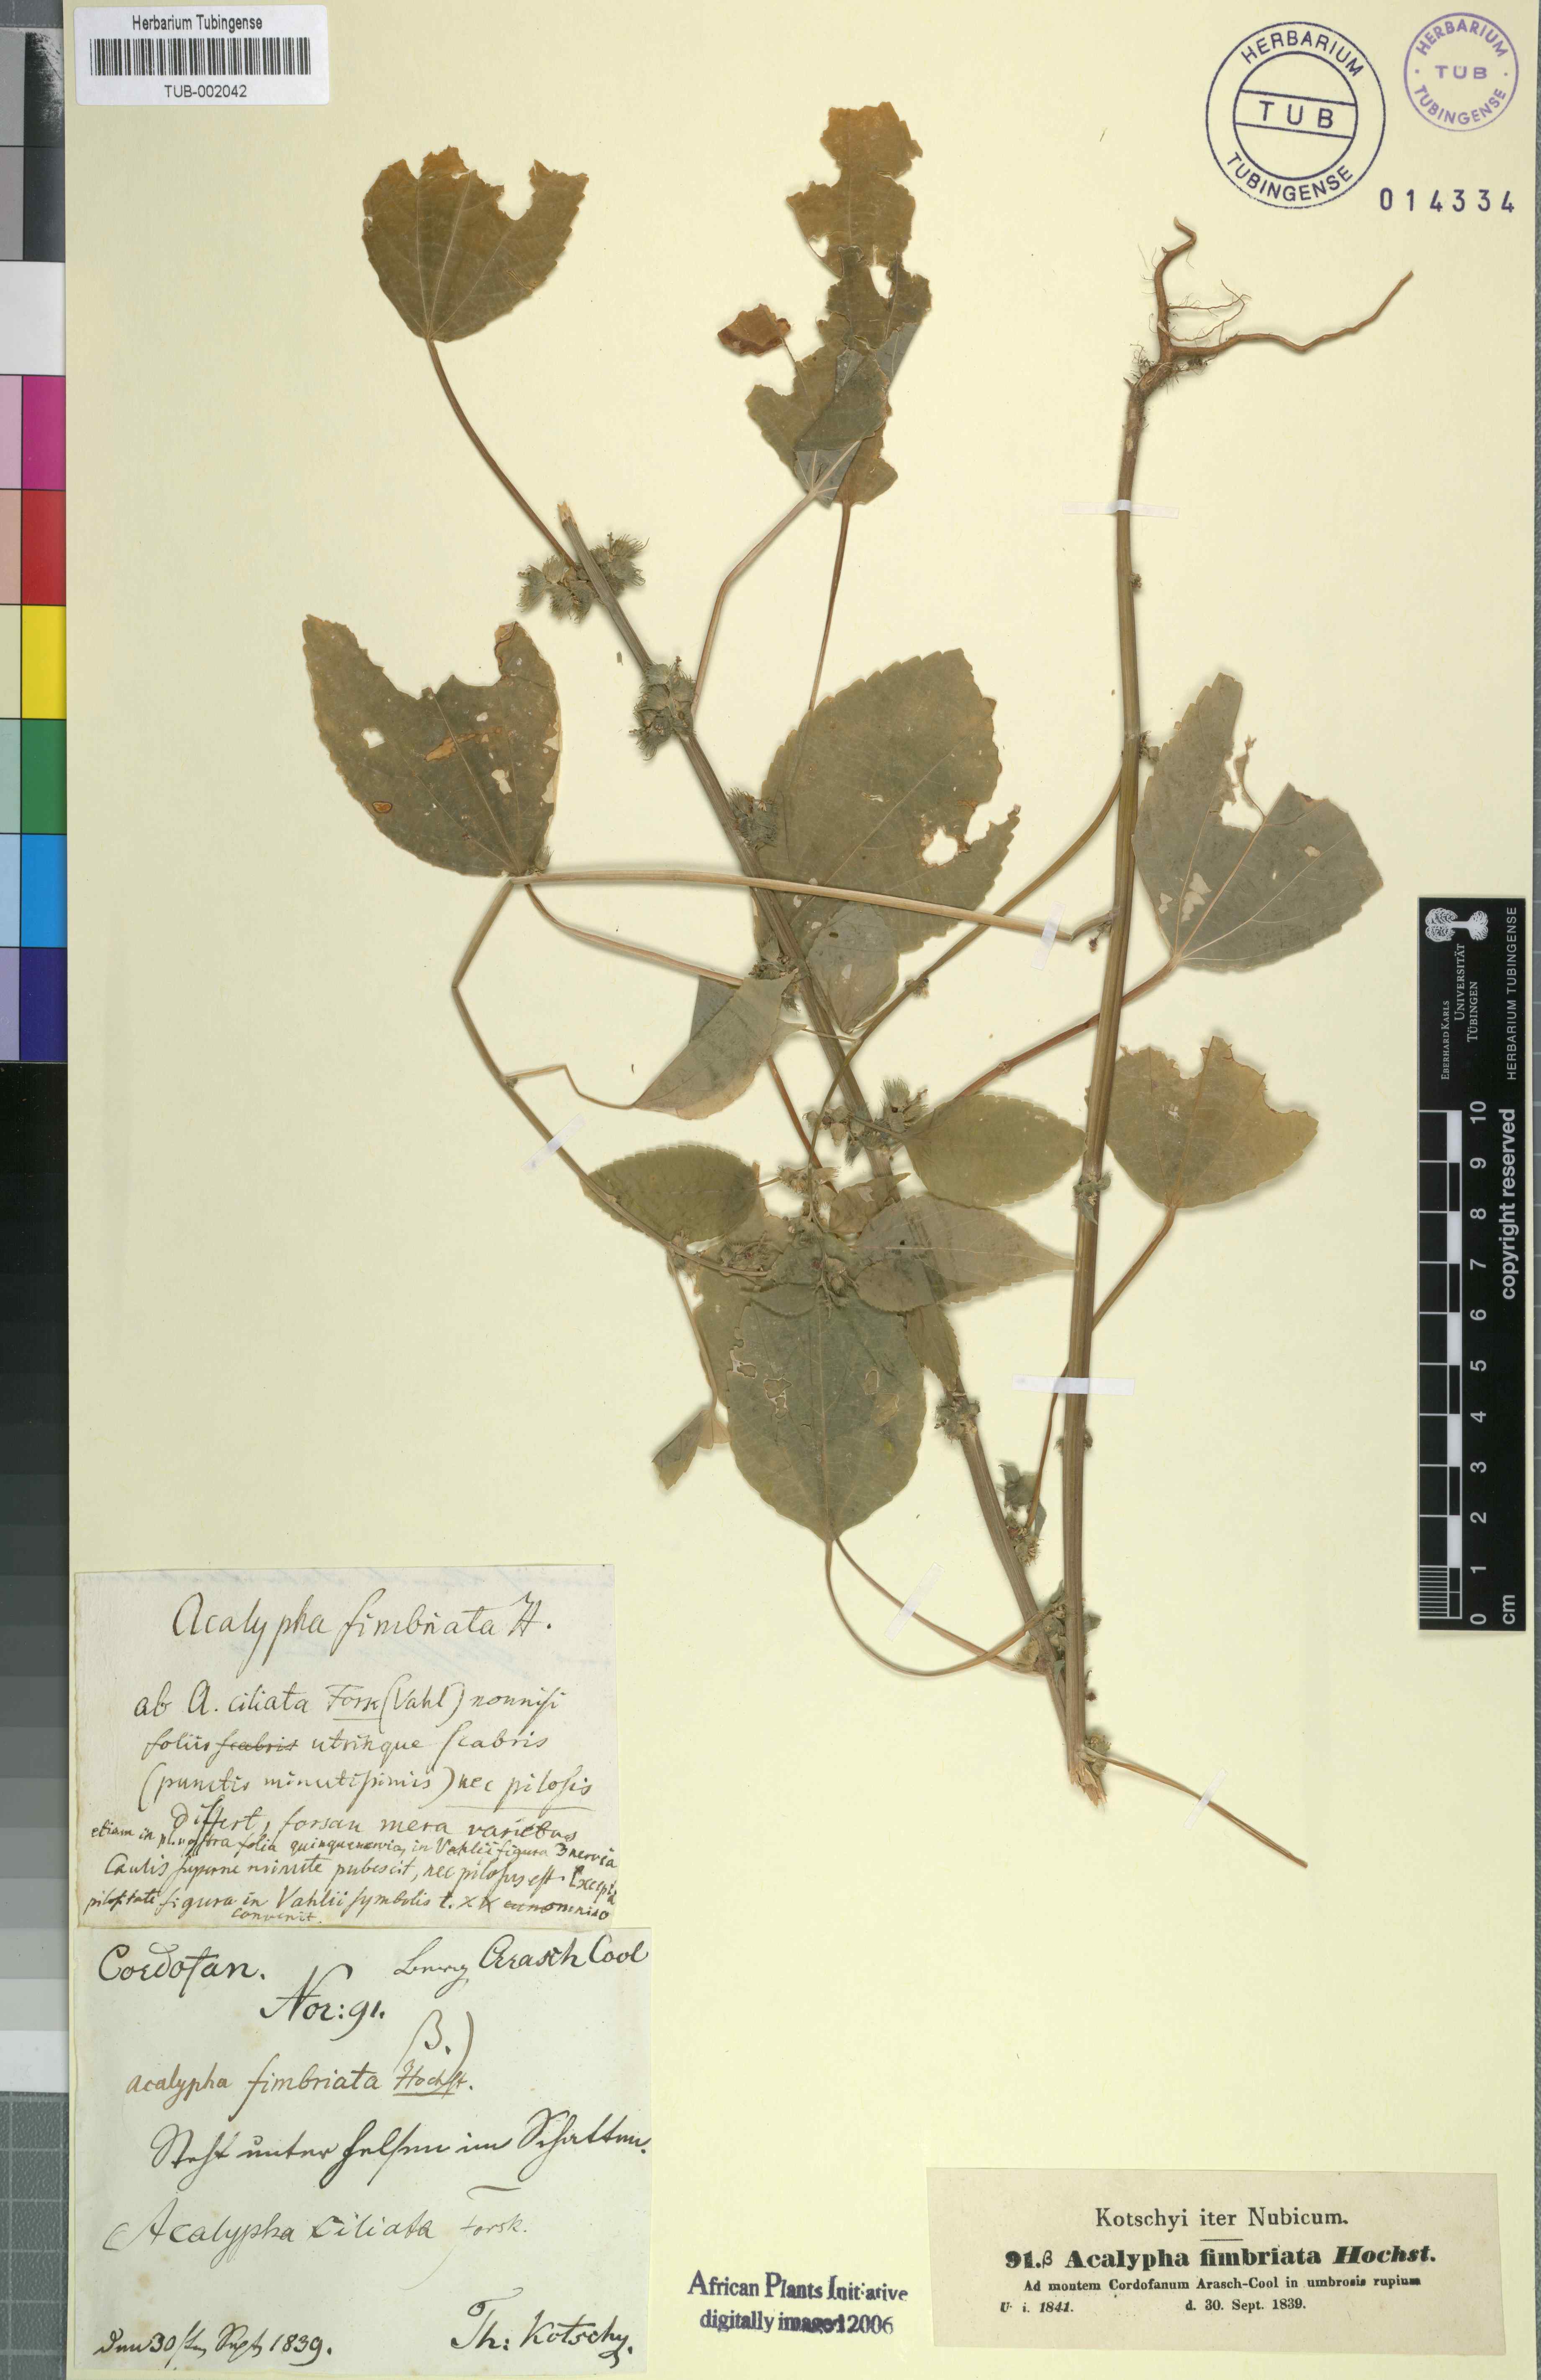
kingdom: Plantae
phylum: Tracheophyta
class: Magnoliopsida
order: Malpighiales
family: Euphorbiaceae
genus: Acalypha
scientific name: Acalypha fimbriata
